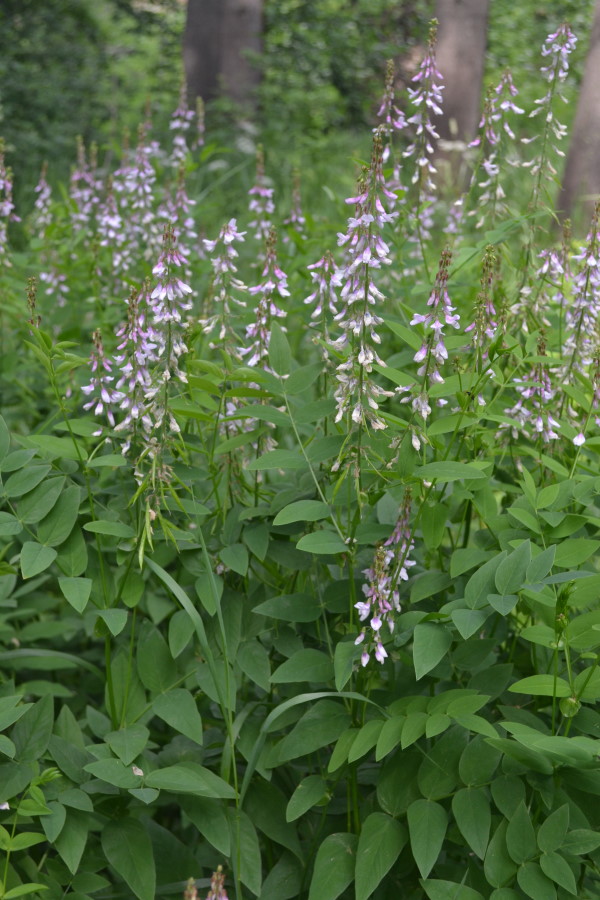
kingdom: Plantae
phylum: Tracheophyta
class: Magnoliopsida
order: Fabales
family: Fabaceae
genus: Galega
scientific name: Galega officinalis
